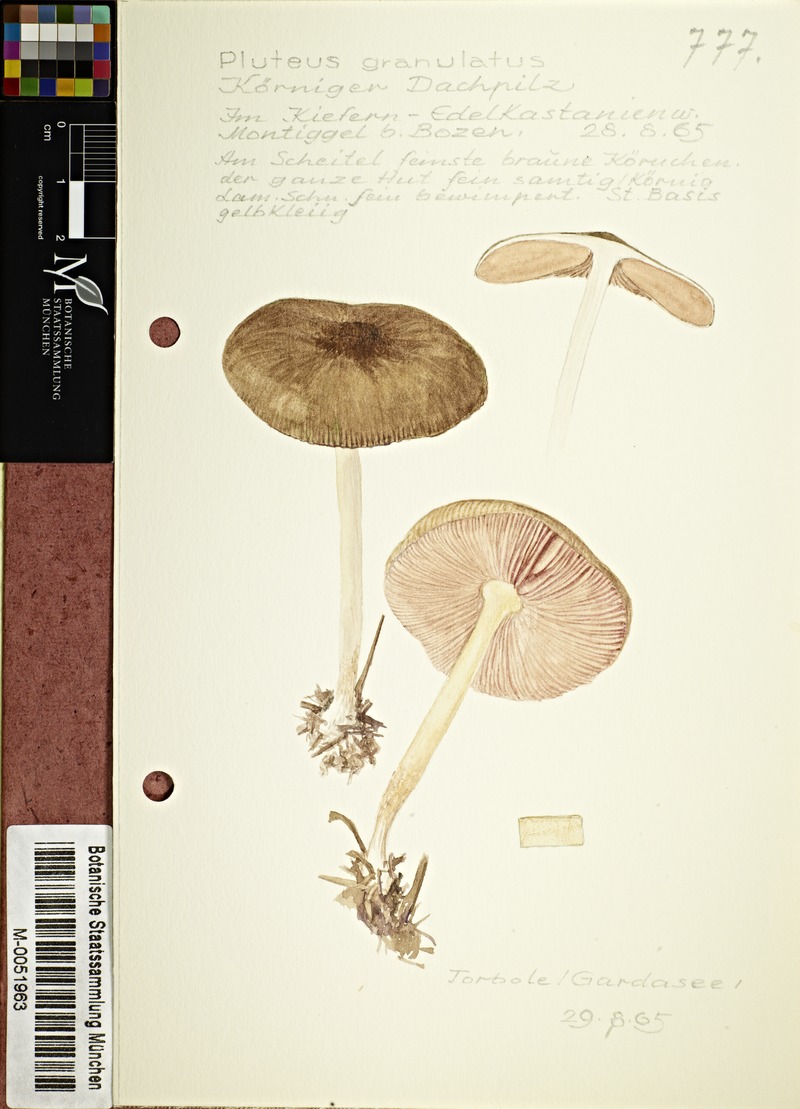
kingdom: Fungi
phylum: Basidiomycota
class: Agaricomycetes
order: Agaricales
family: Pluteaceae
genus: Pluteus
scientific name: Pluteus plautus
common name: Satin shield
